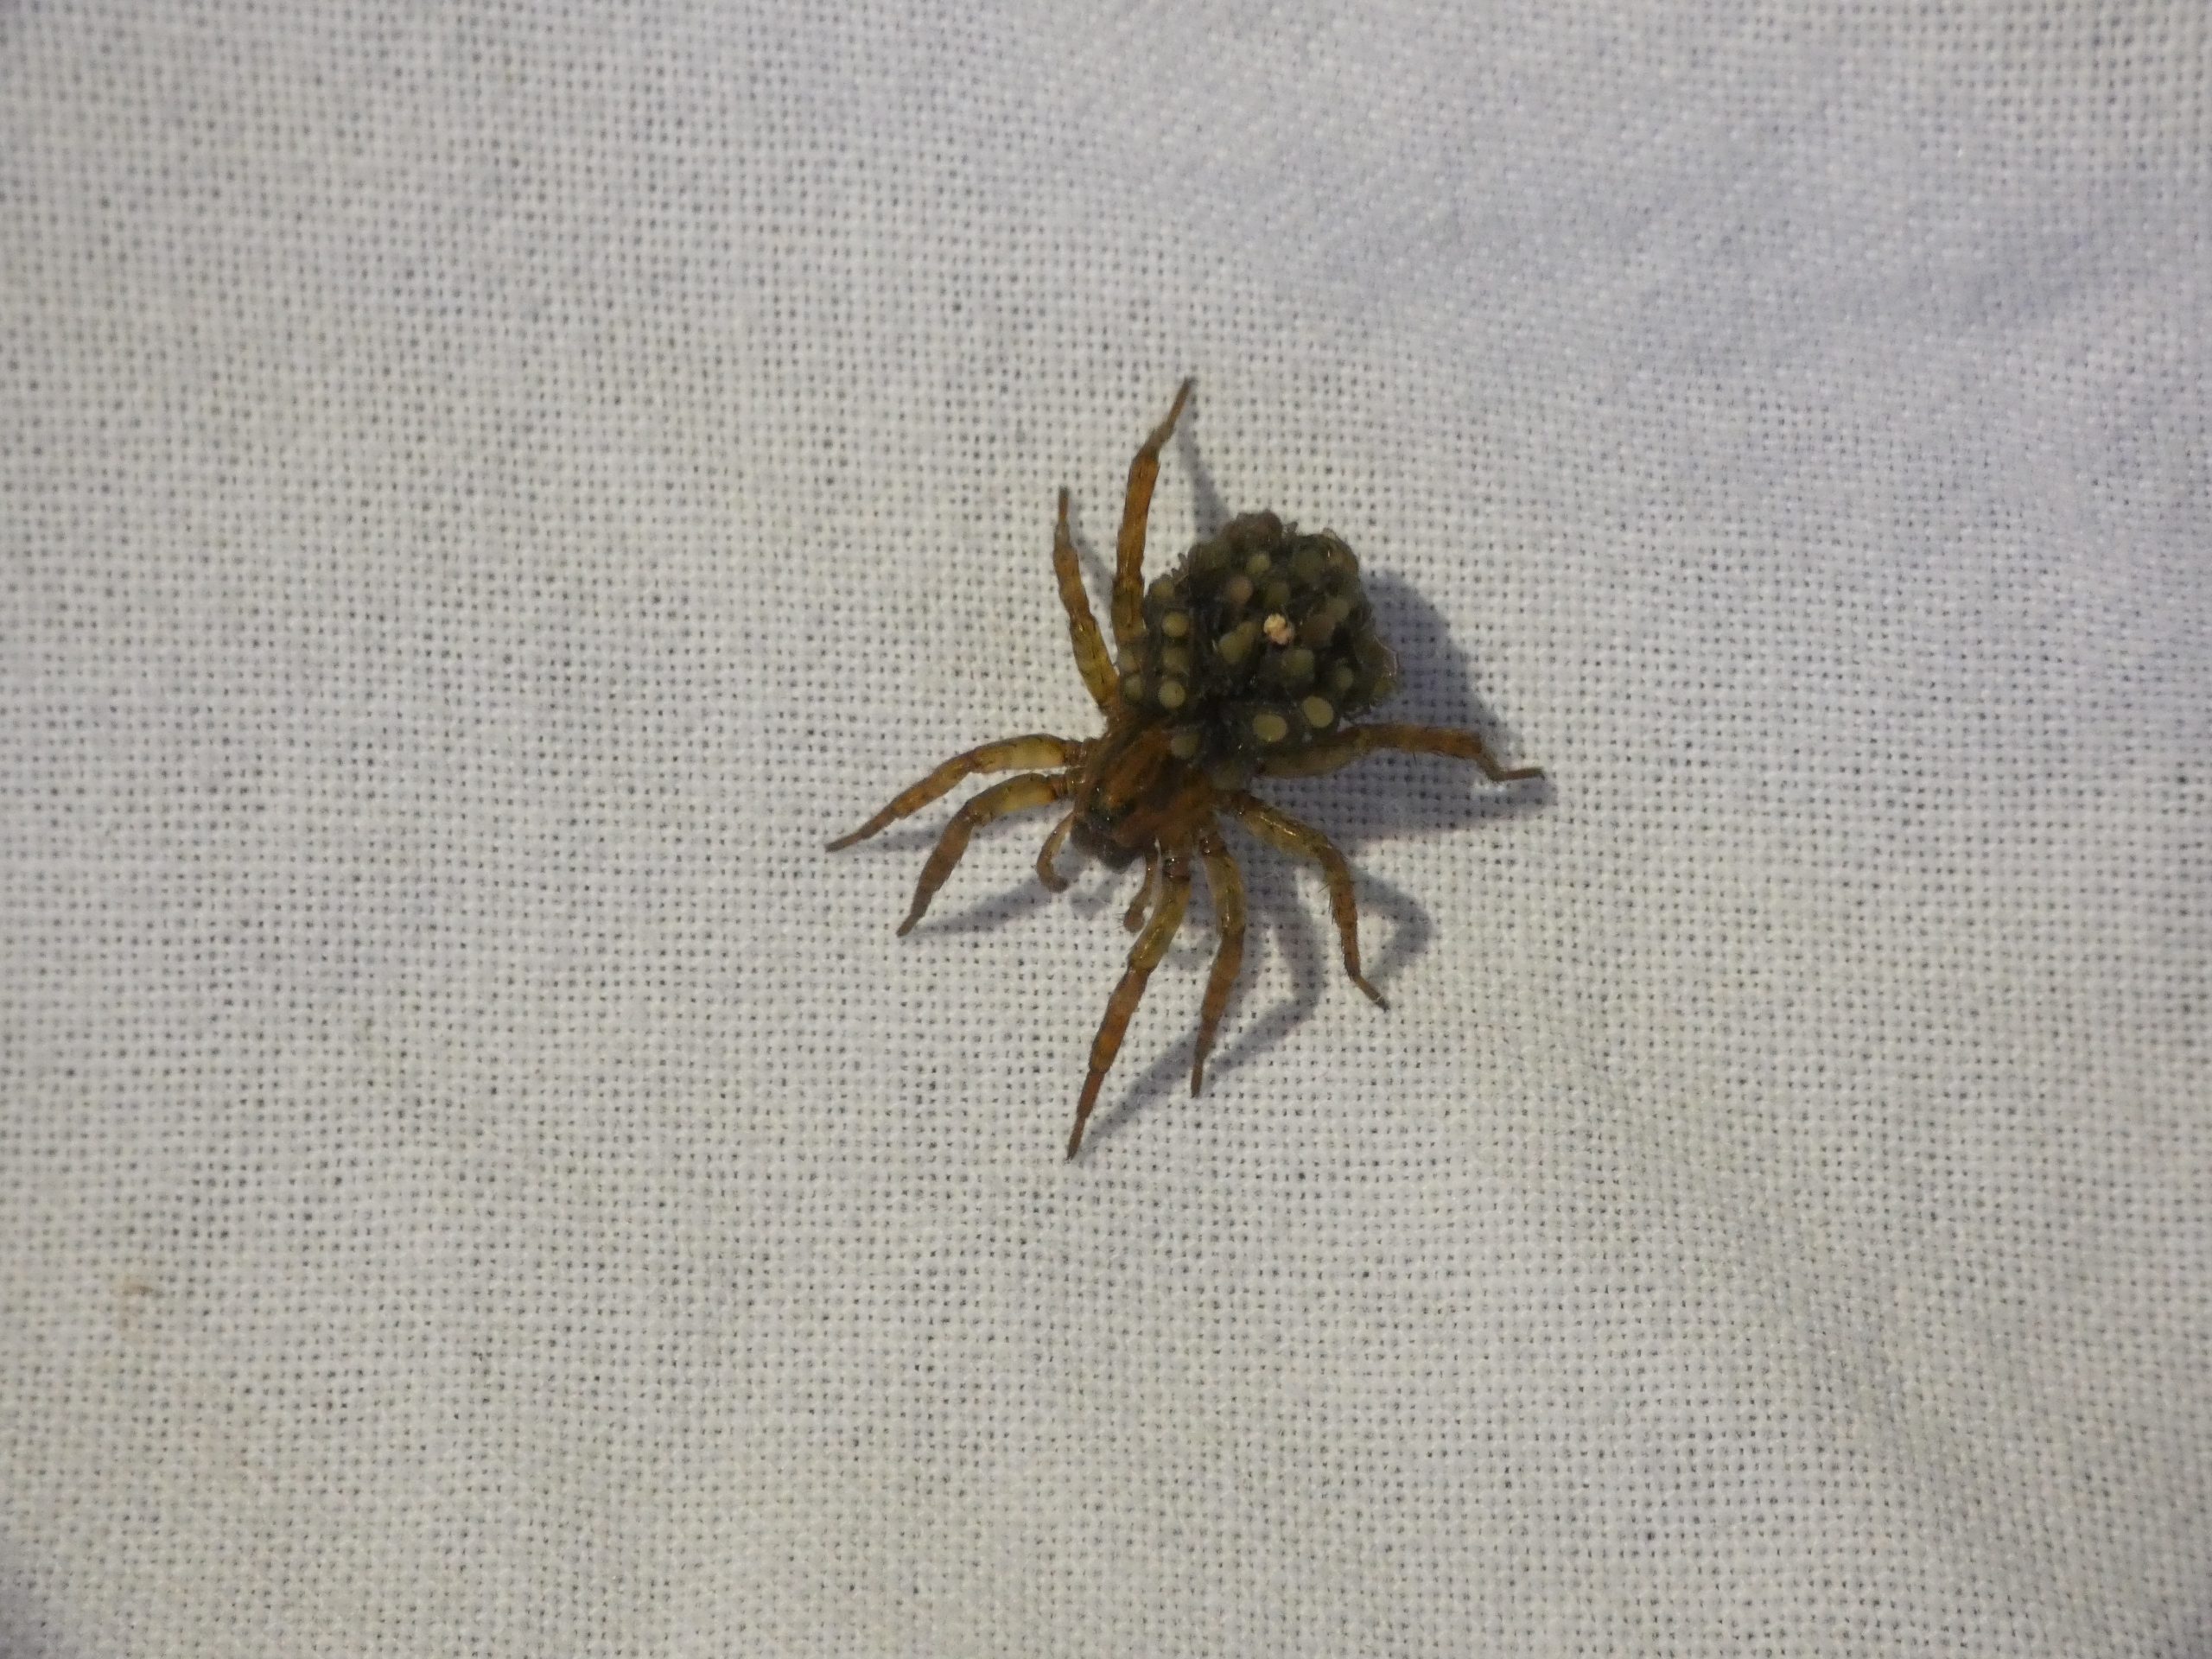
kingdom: Animalia
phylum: Arthropoda
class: Arachnida
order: Araneae
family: Lycosidae
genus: Trochosa
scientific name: Trochosa
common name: Bjørneedderkopslægten
